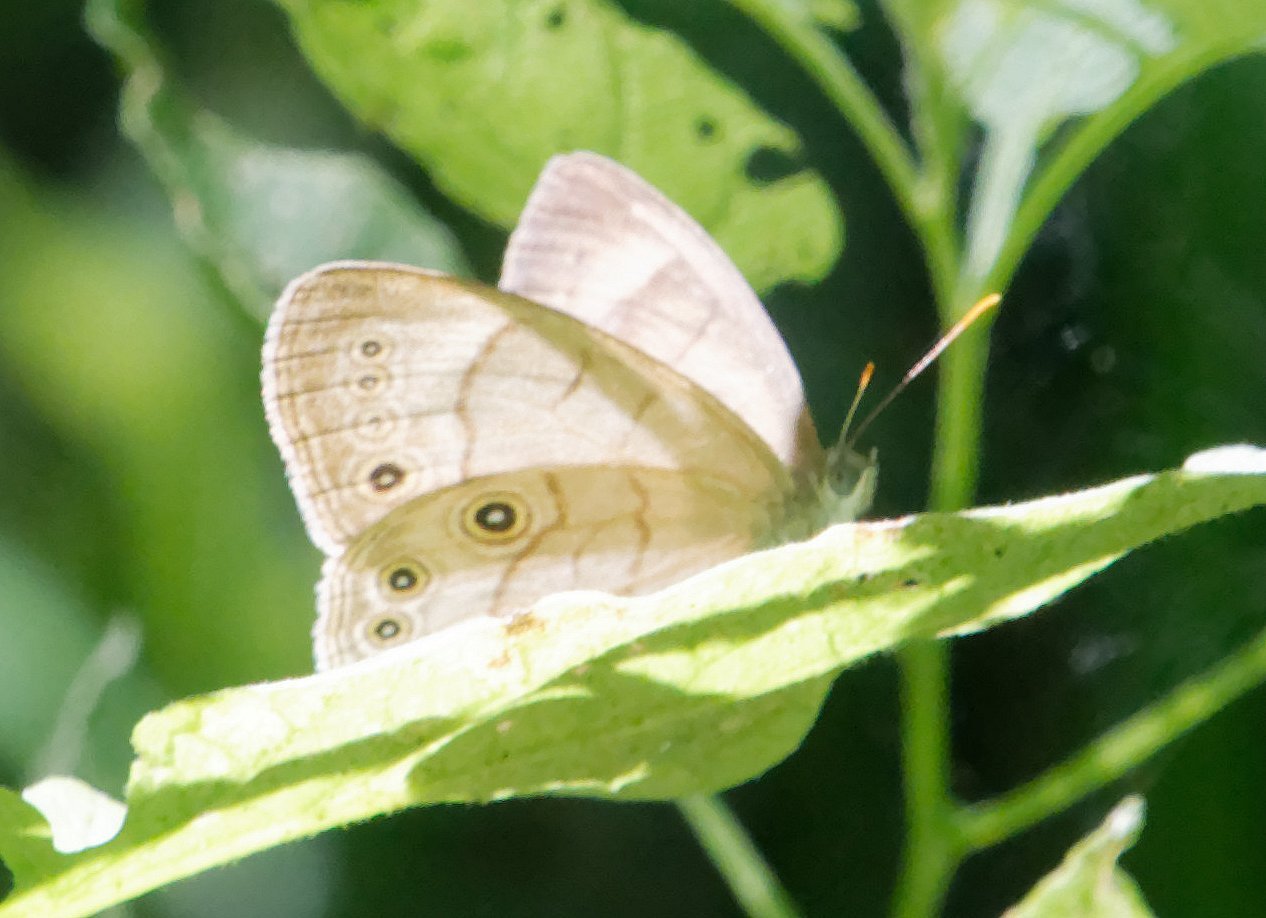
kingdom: Animalia
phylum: Arthropoda
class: Insecta
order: Lepidoptera
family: Nymphalidae
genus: Lethe
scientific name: Lethe eurydice
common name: Appalachian Eyed Brown
